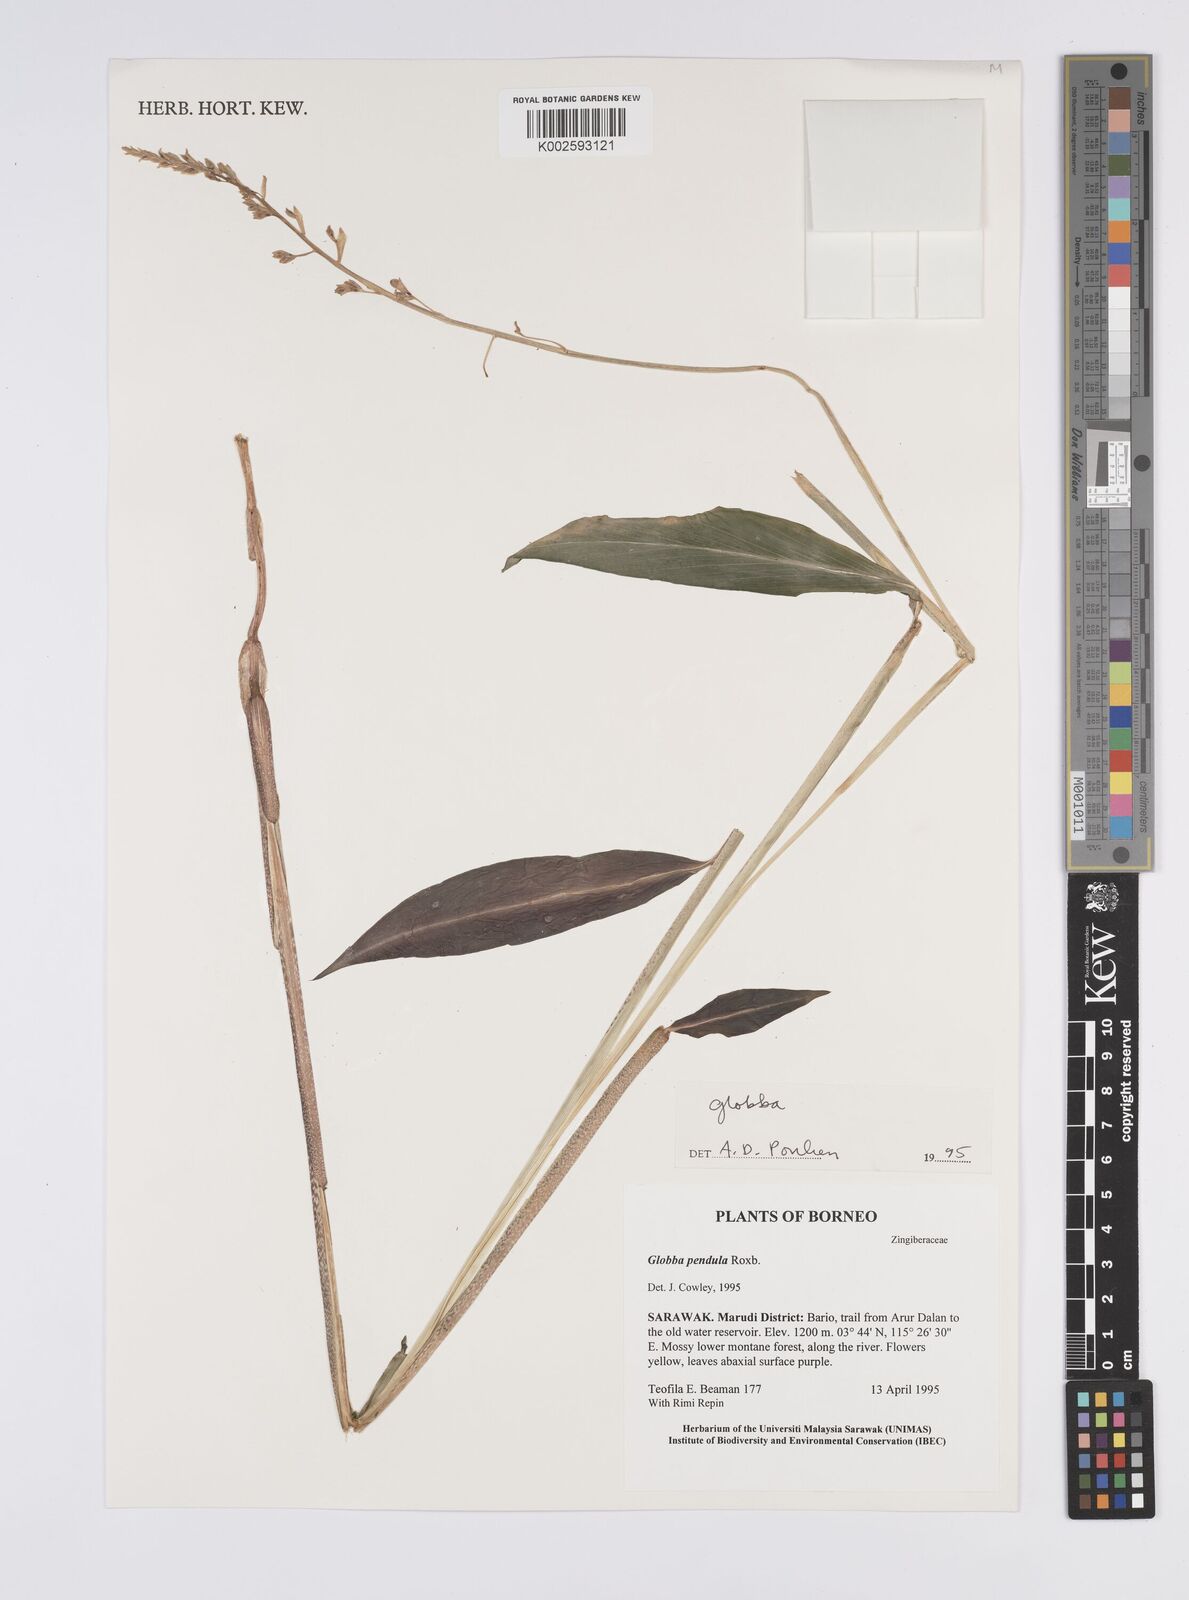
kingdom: Plantae
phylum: Tracheophyta
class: Liliopsida
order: Zingiberales
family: Zingiberaceae
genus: Globba
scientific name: Globba pendula
